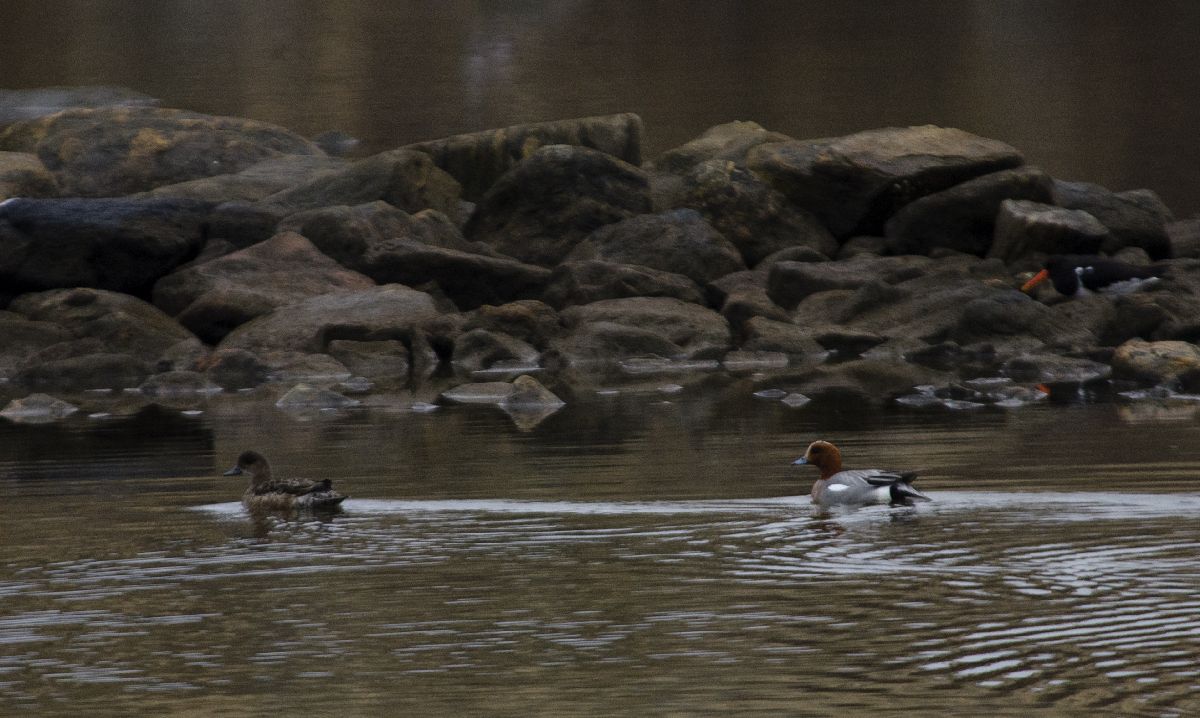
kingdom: Animalia
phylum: Chordata
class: Aves
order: Anseriformes
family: Anatidae
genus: Mareca
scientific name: Mareca penelope
